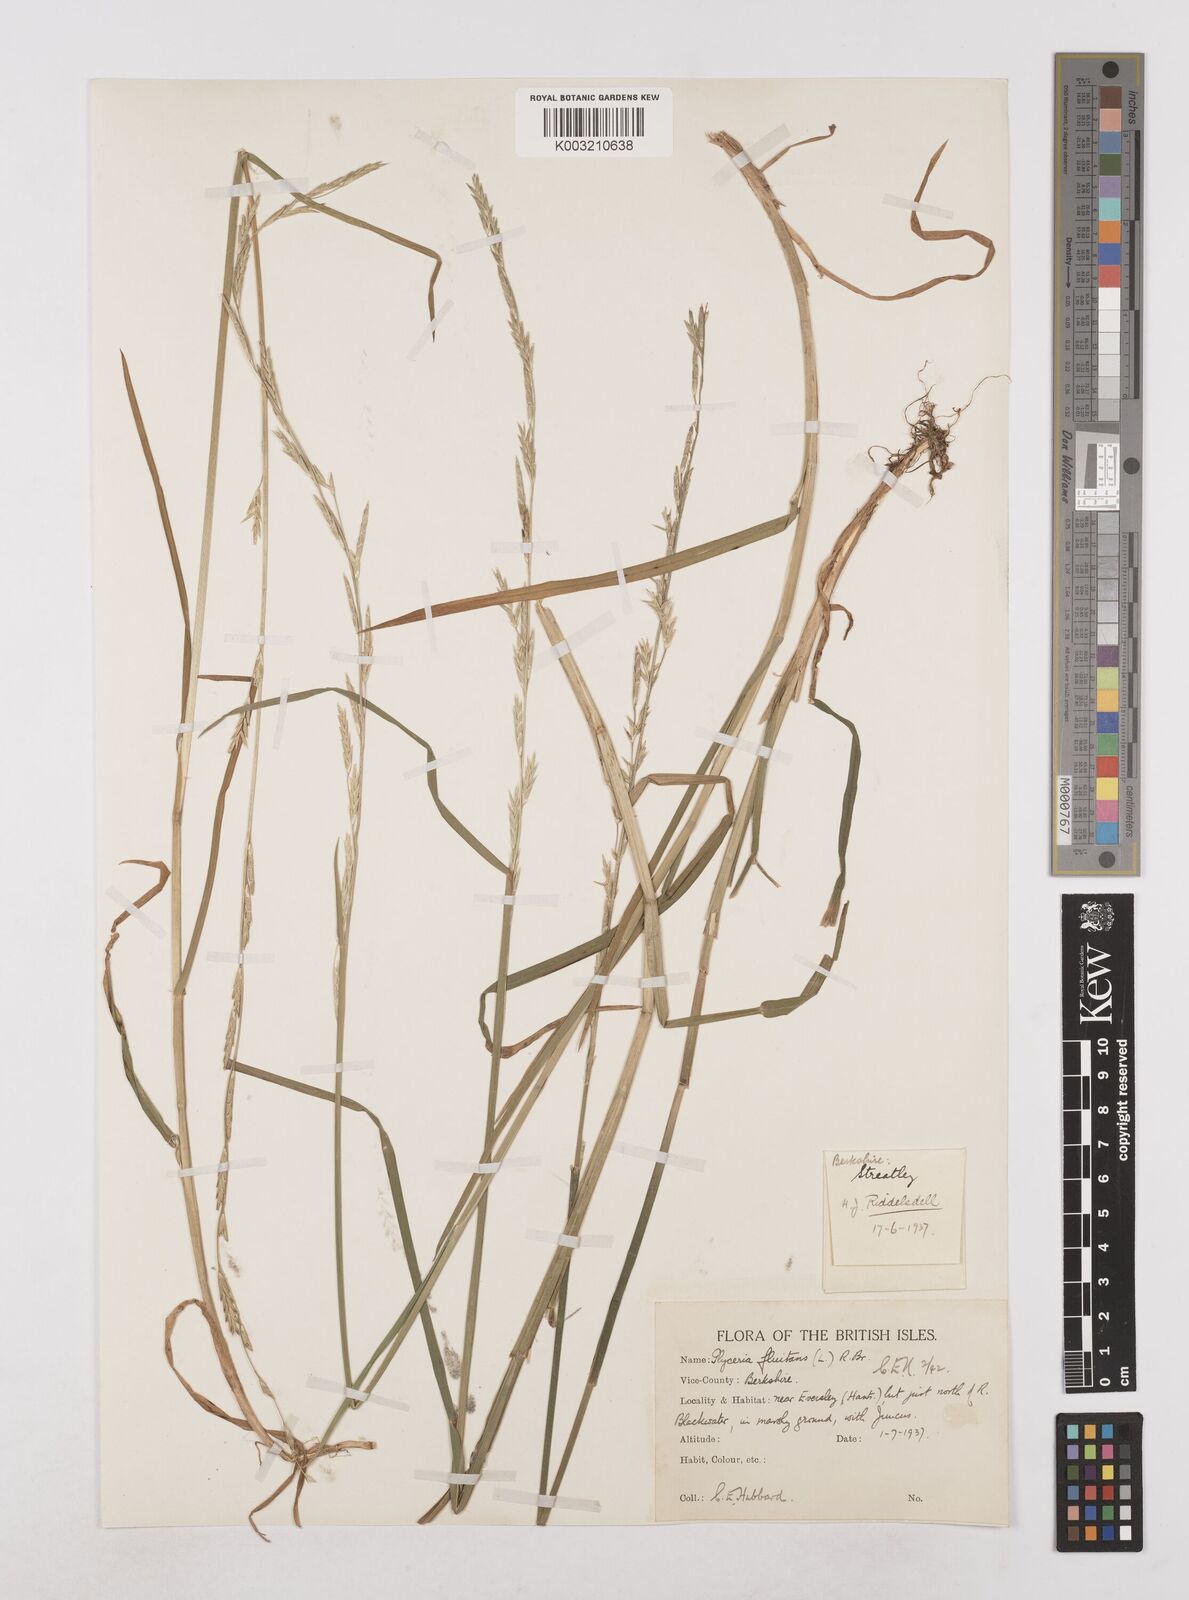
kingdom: Plantae
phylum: Tracheophyta
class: Liliopsida
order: Poales
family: Poaceae
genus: Glyceria
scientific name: Glyceria fluitans
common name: Floating sweet-grass
